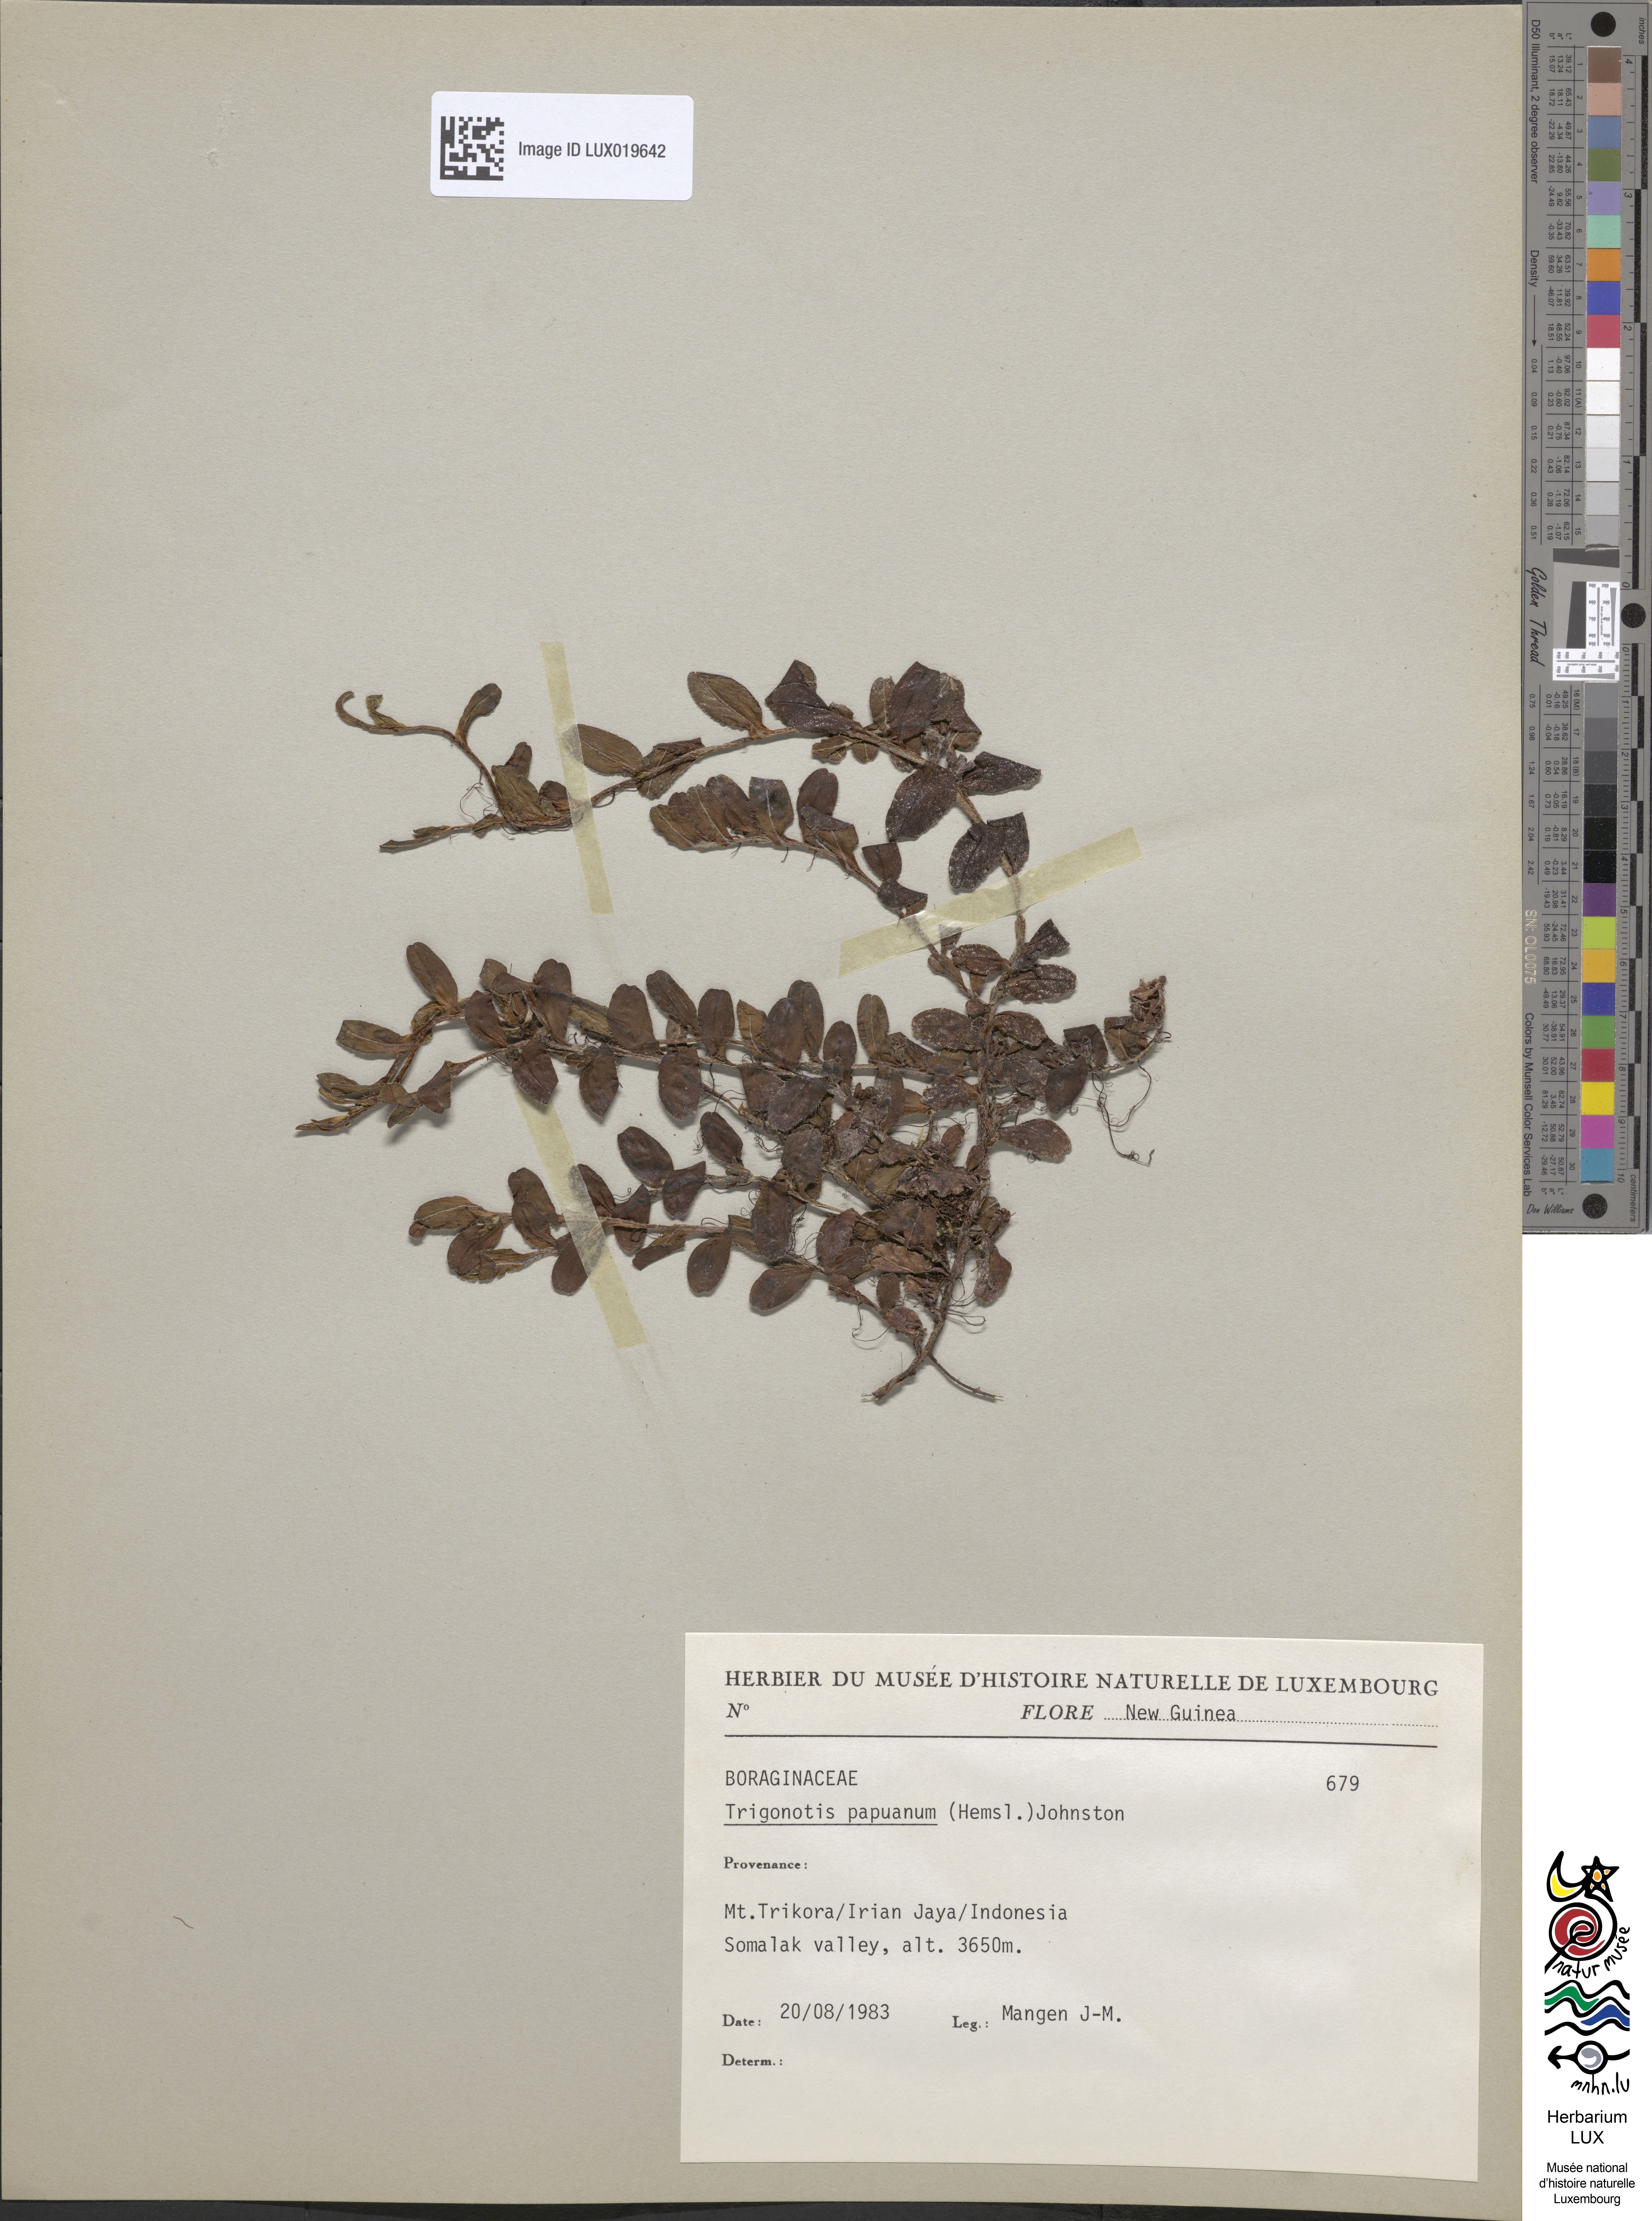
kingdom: Plantae
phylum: Tracheophyta
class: Magnoliopsida
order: Boraginales
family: Boraginaceae
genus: Trigonotis
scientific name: Trigonotis papuana
